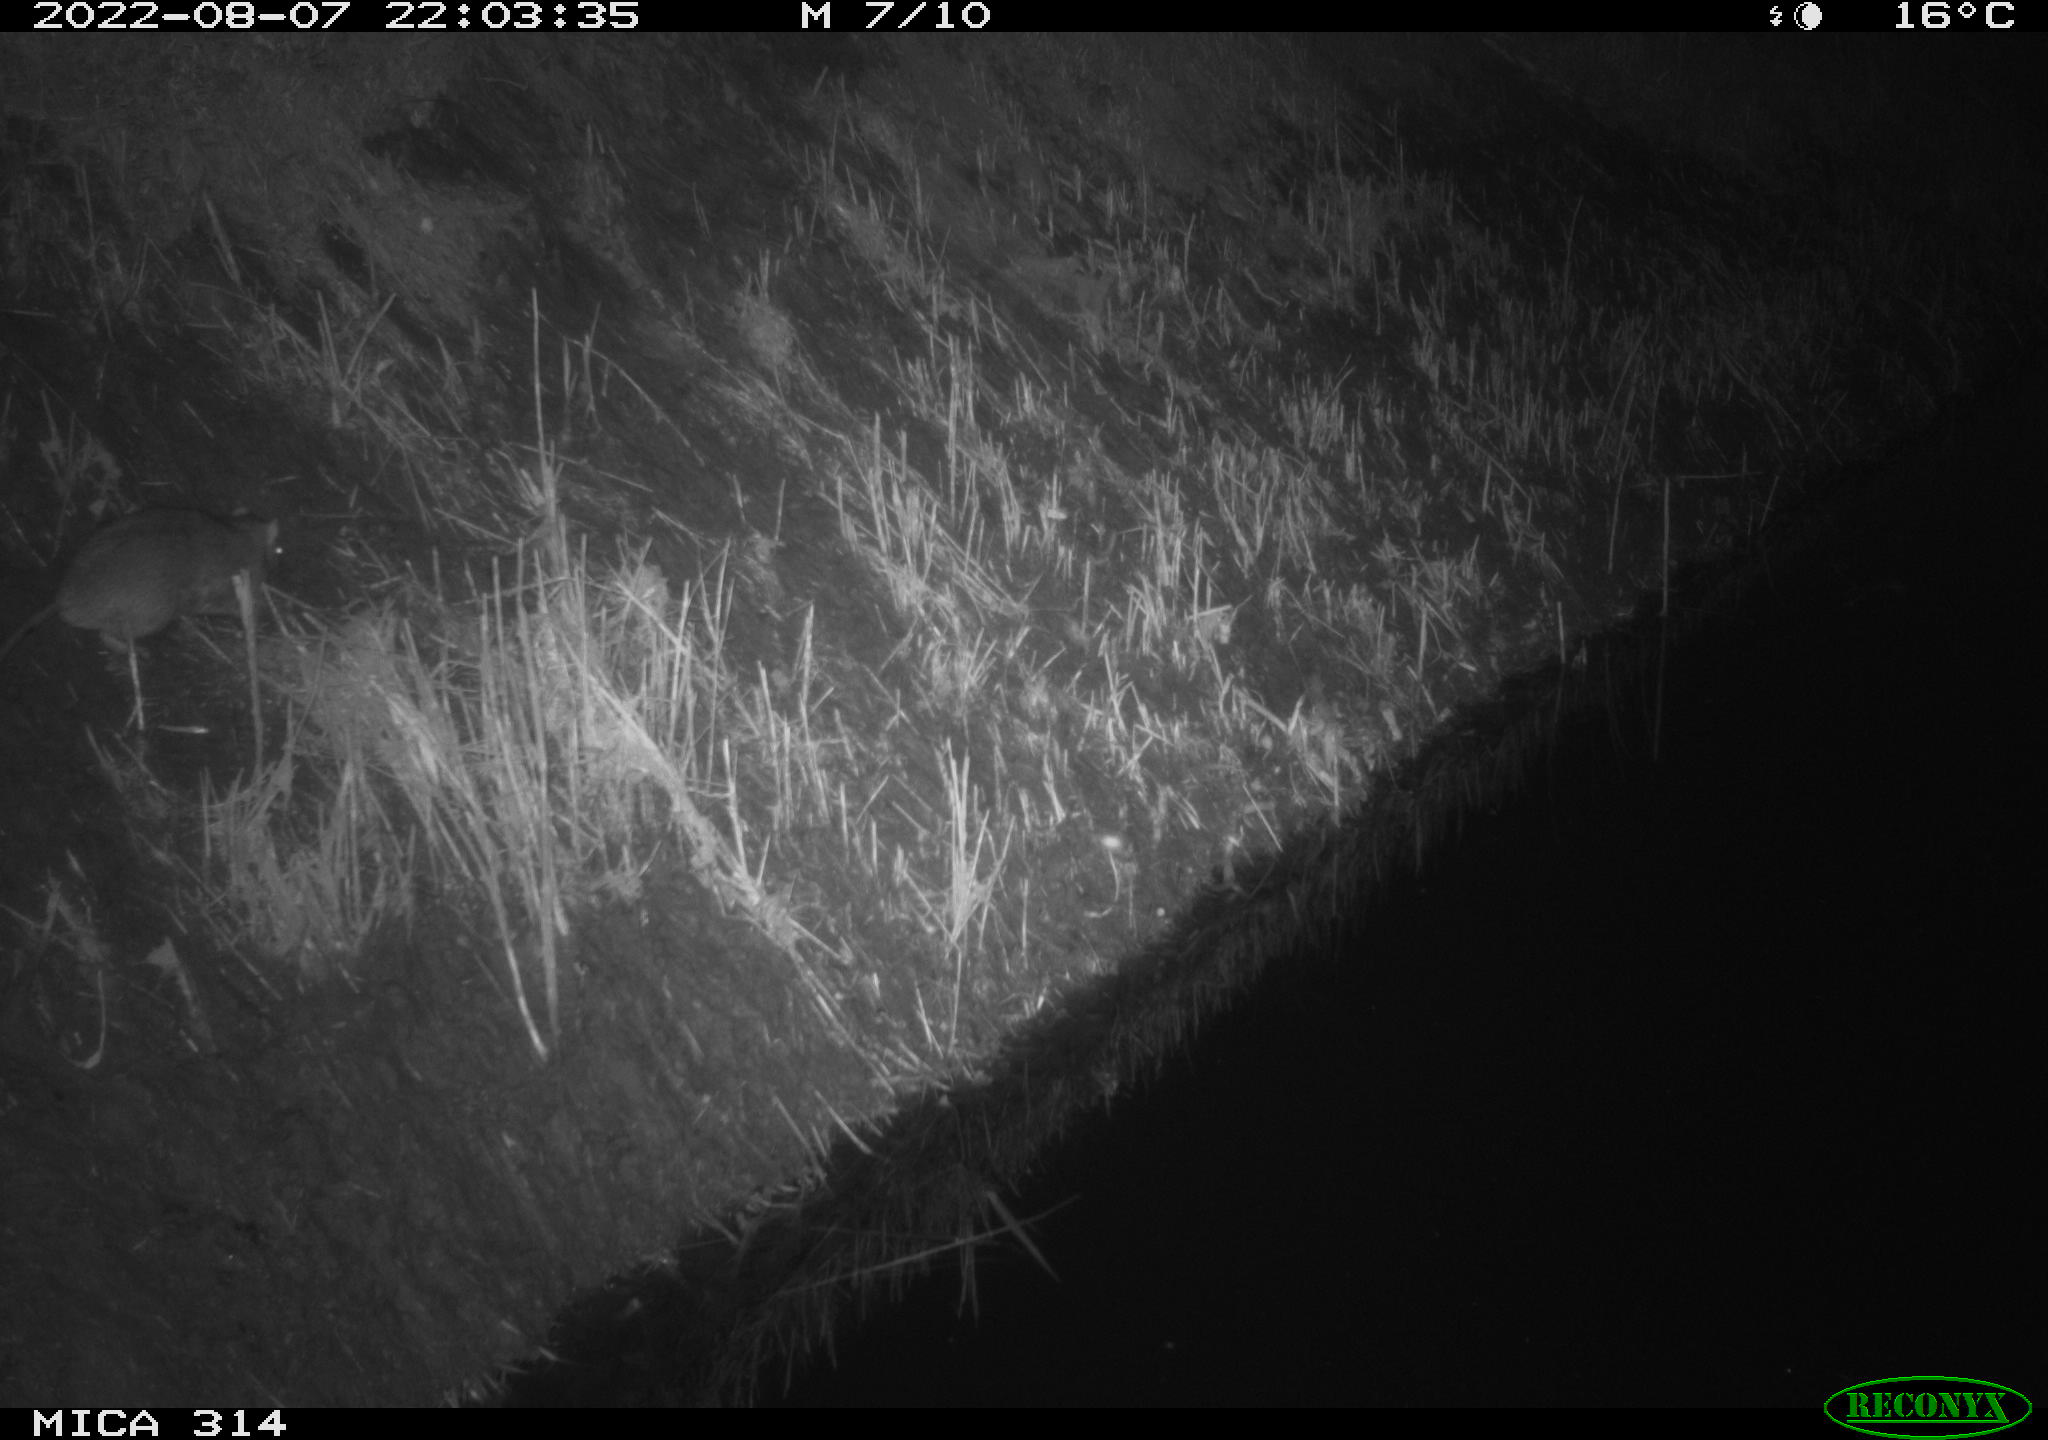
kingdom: Animalia
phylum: Chordata
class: Mammalia
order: Rodentia
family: Muridae
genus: Rattus
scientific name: Rattus norvegicus
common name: Brown rat
